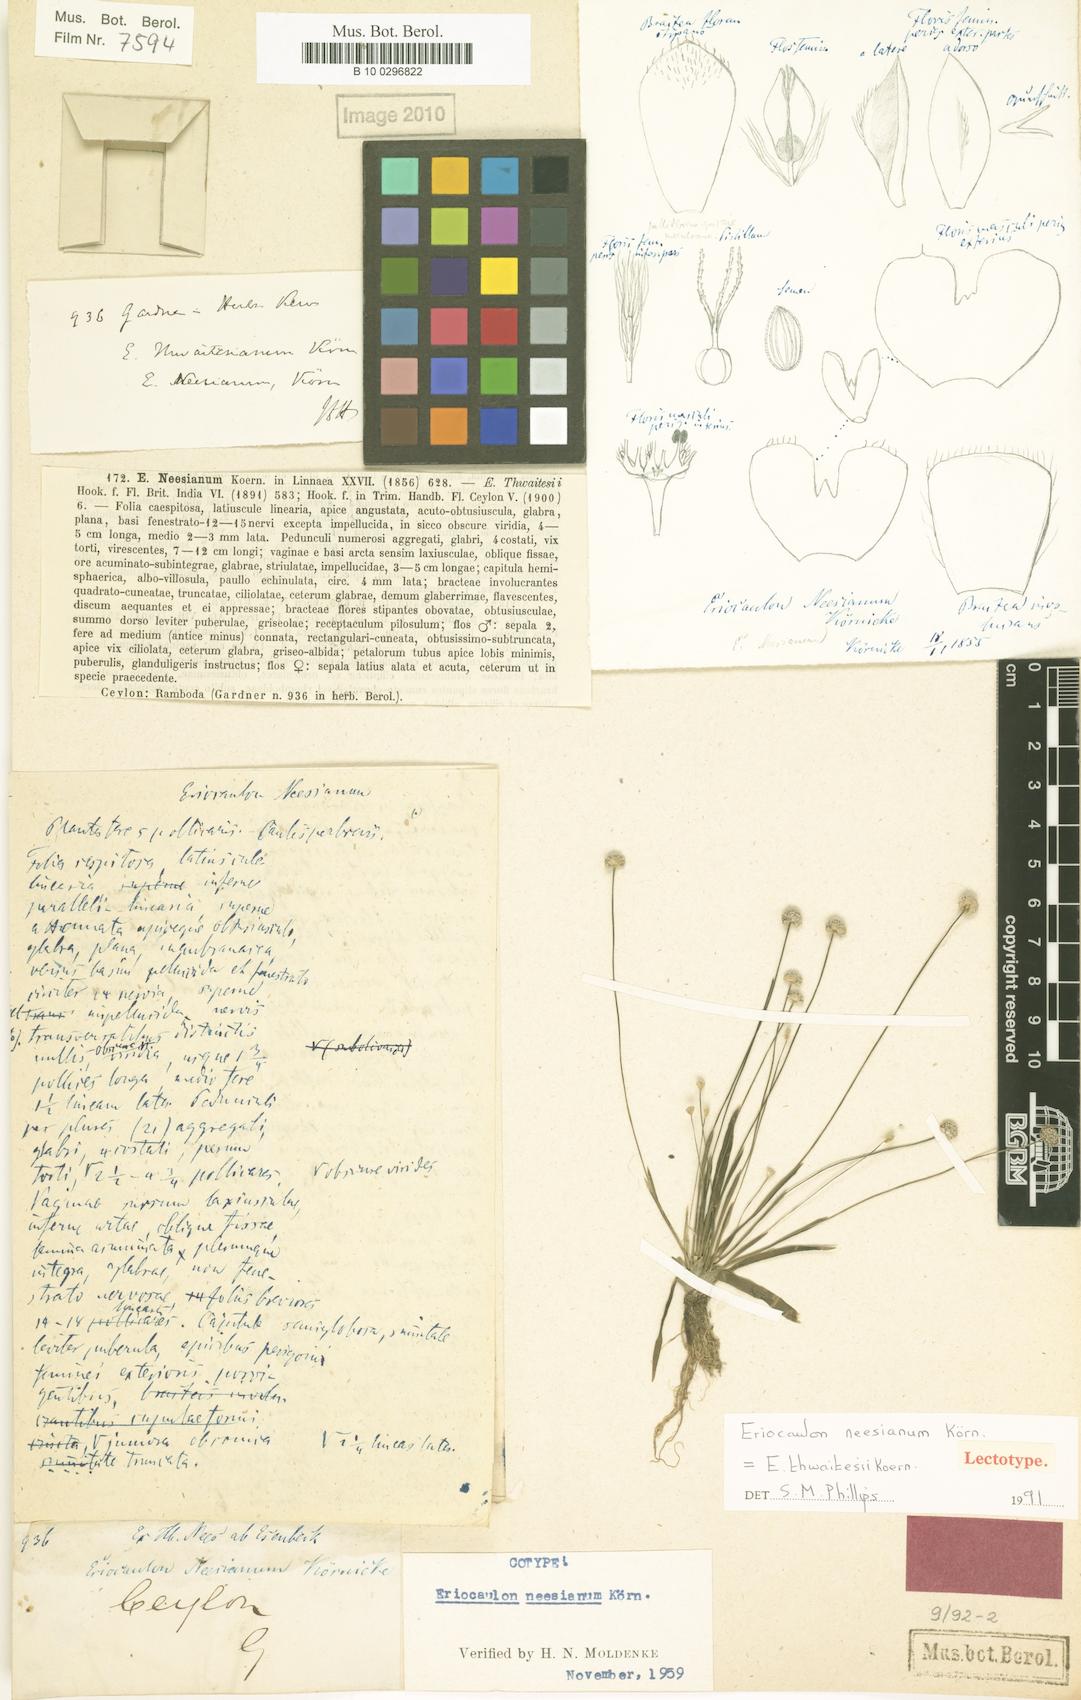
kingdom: Plantae
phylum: Tracheophyta
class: Liliopsida
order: Poales
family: Eriocaulaceae
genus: Eriocaulon
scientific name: Eriocaulon thwaitesii
